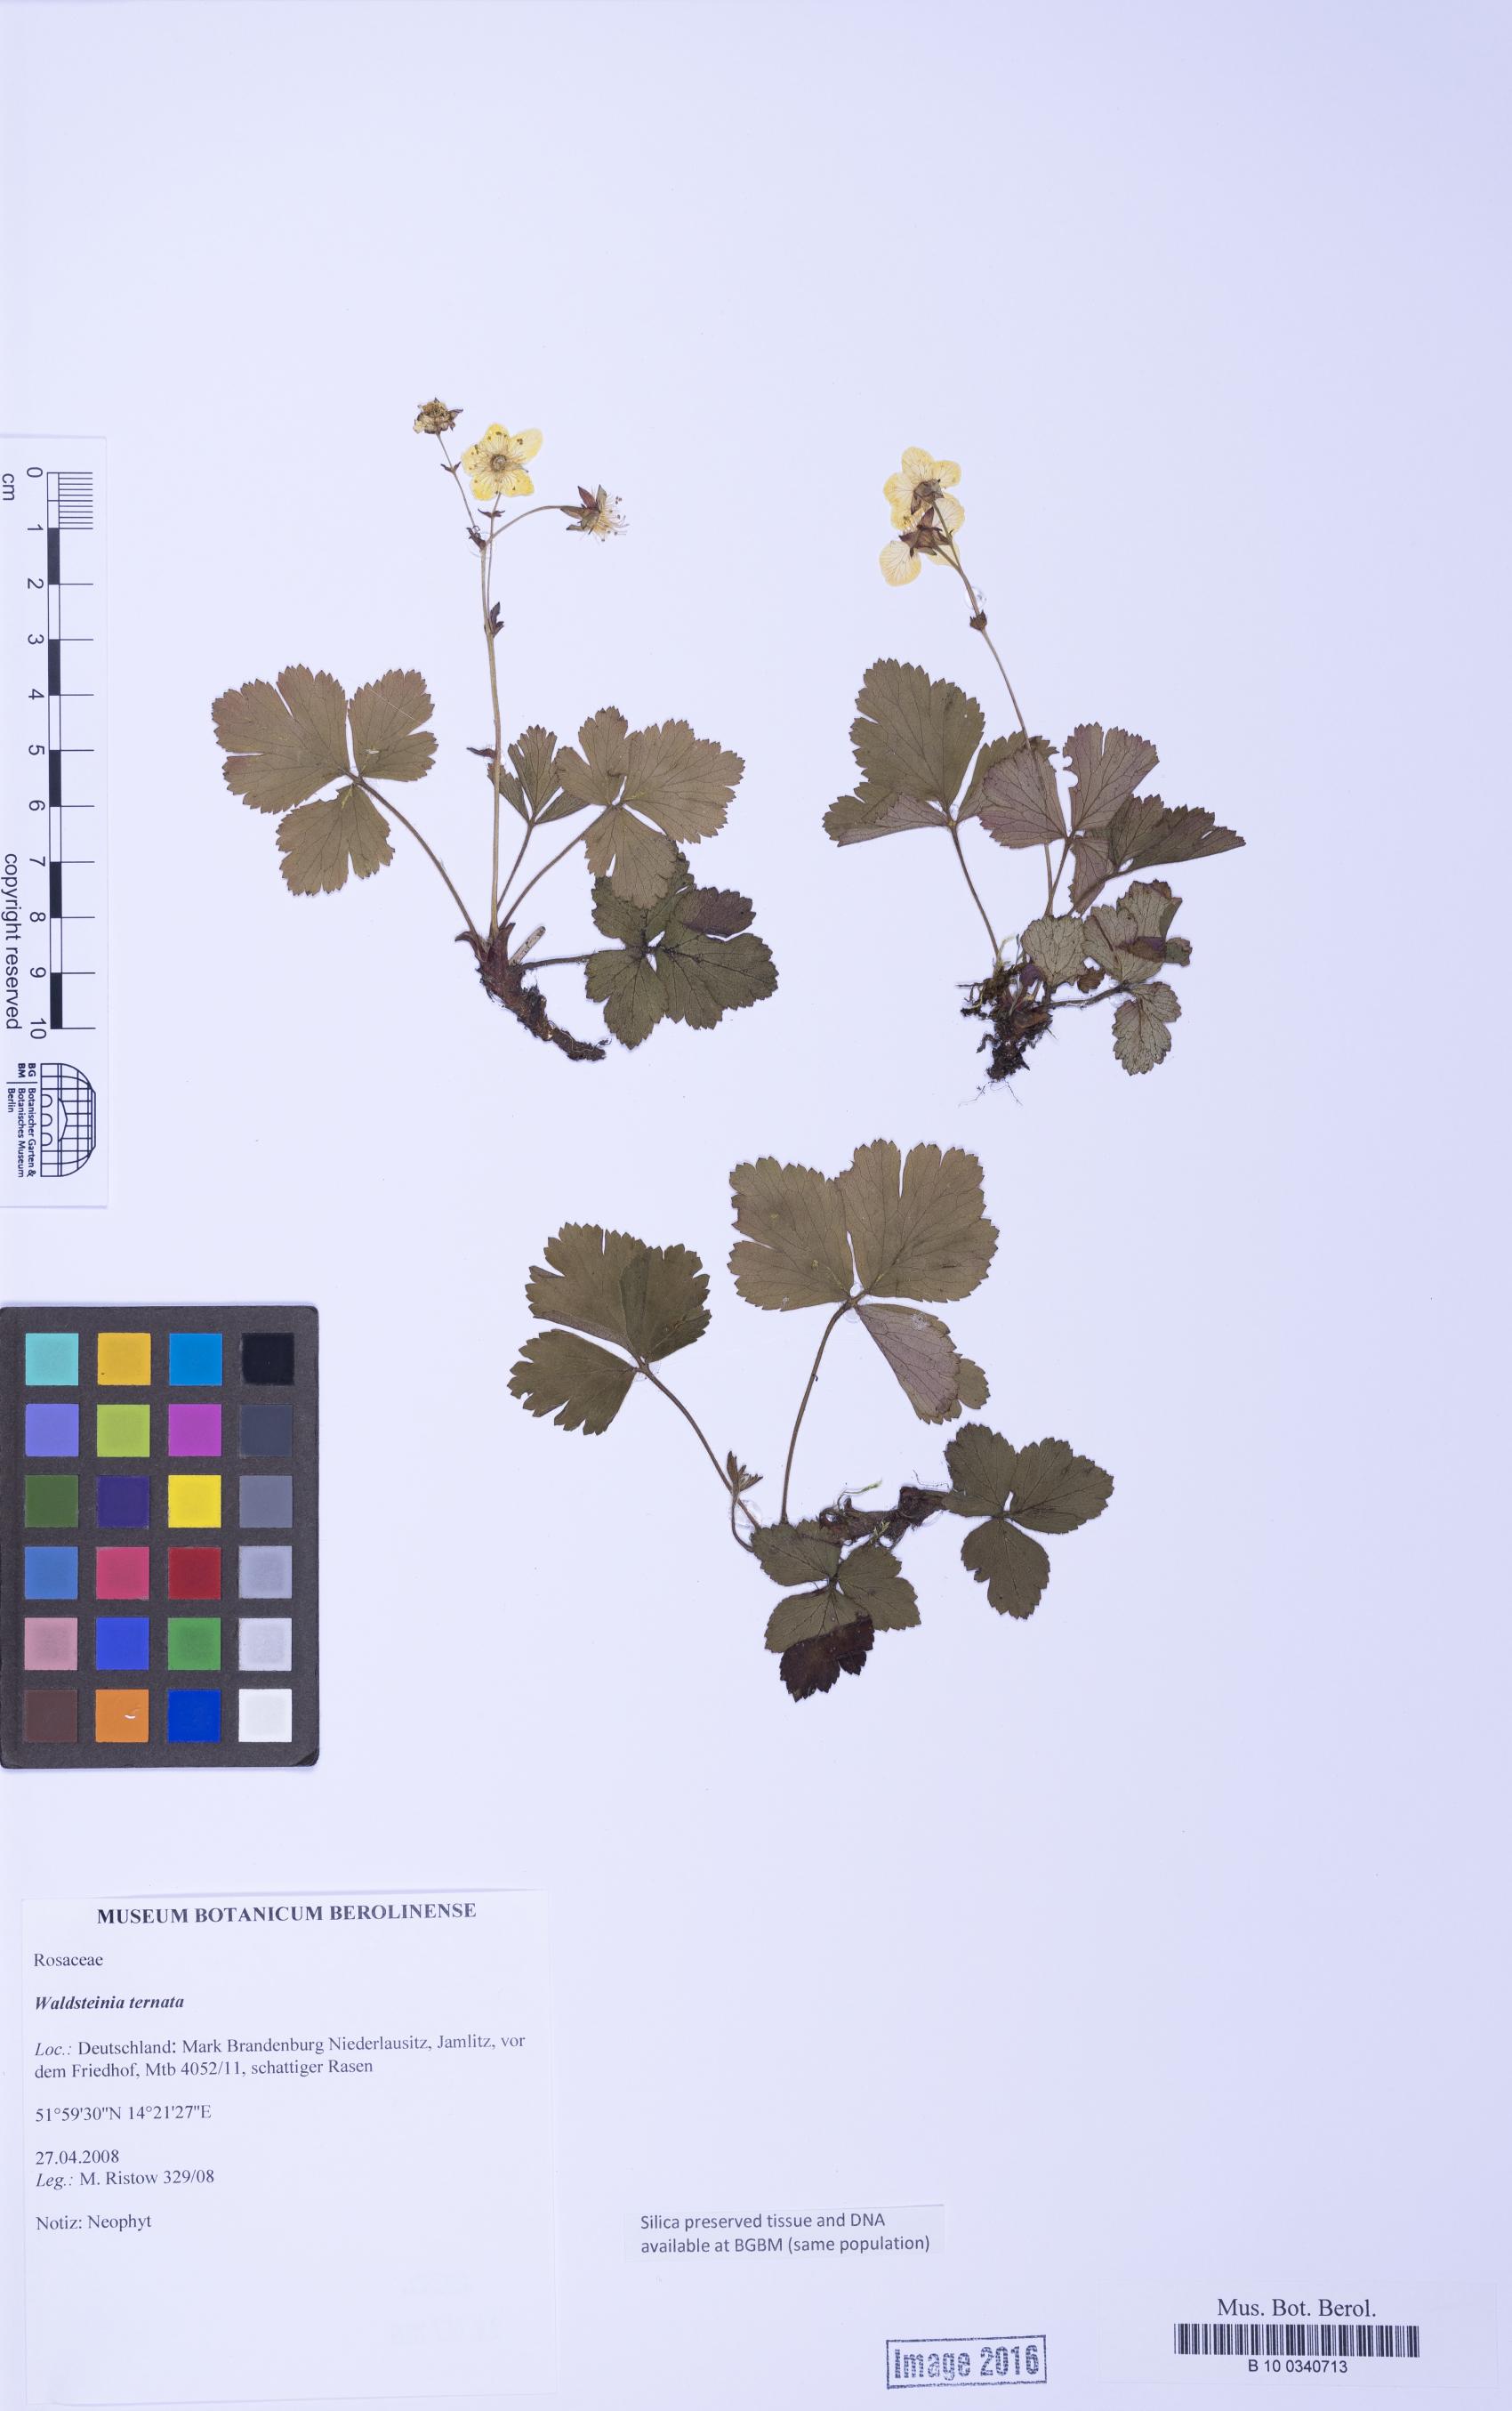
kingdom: Plantae
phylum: Tracheophyta
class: Magnoliopsida
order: Rosales
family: Rosaceae
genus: Geum
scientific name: Geum ternatum
